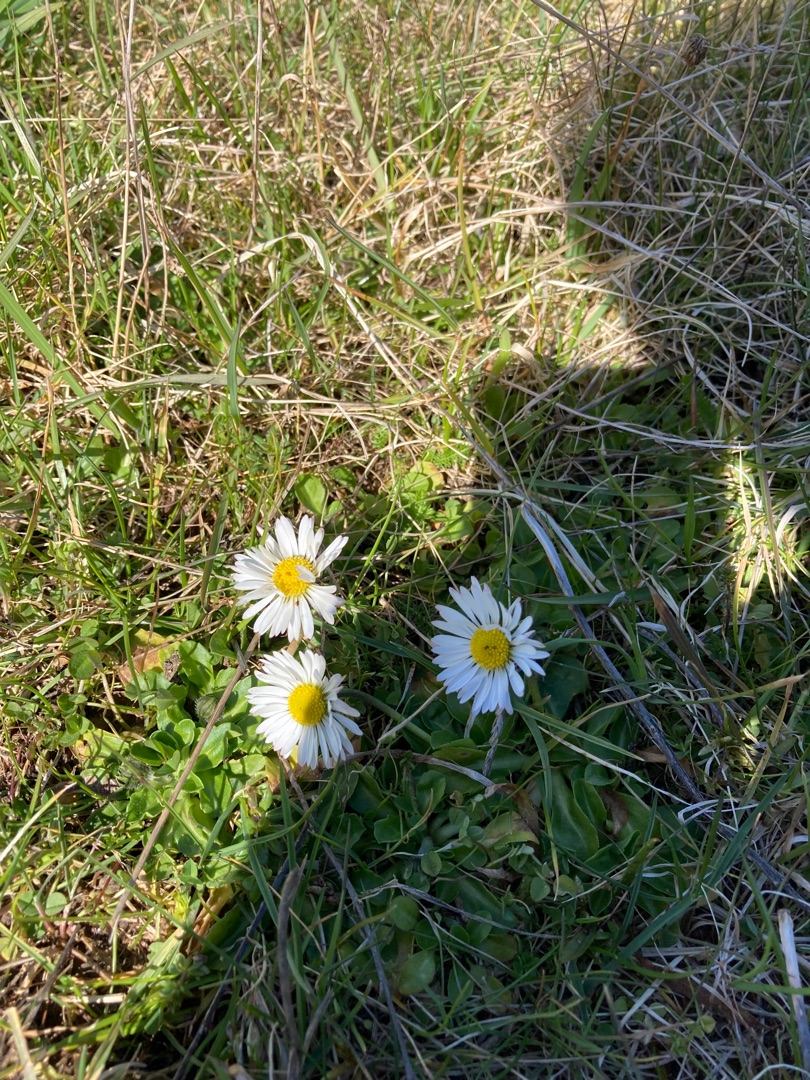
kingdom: Plantae
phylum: Tracheophyta
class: Magnoliopsida
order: Asterales
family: Asteraceae
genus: Bellis
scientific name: Bellis perennis
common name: Tusindfryd
